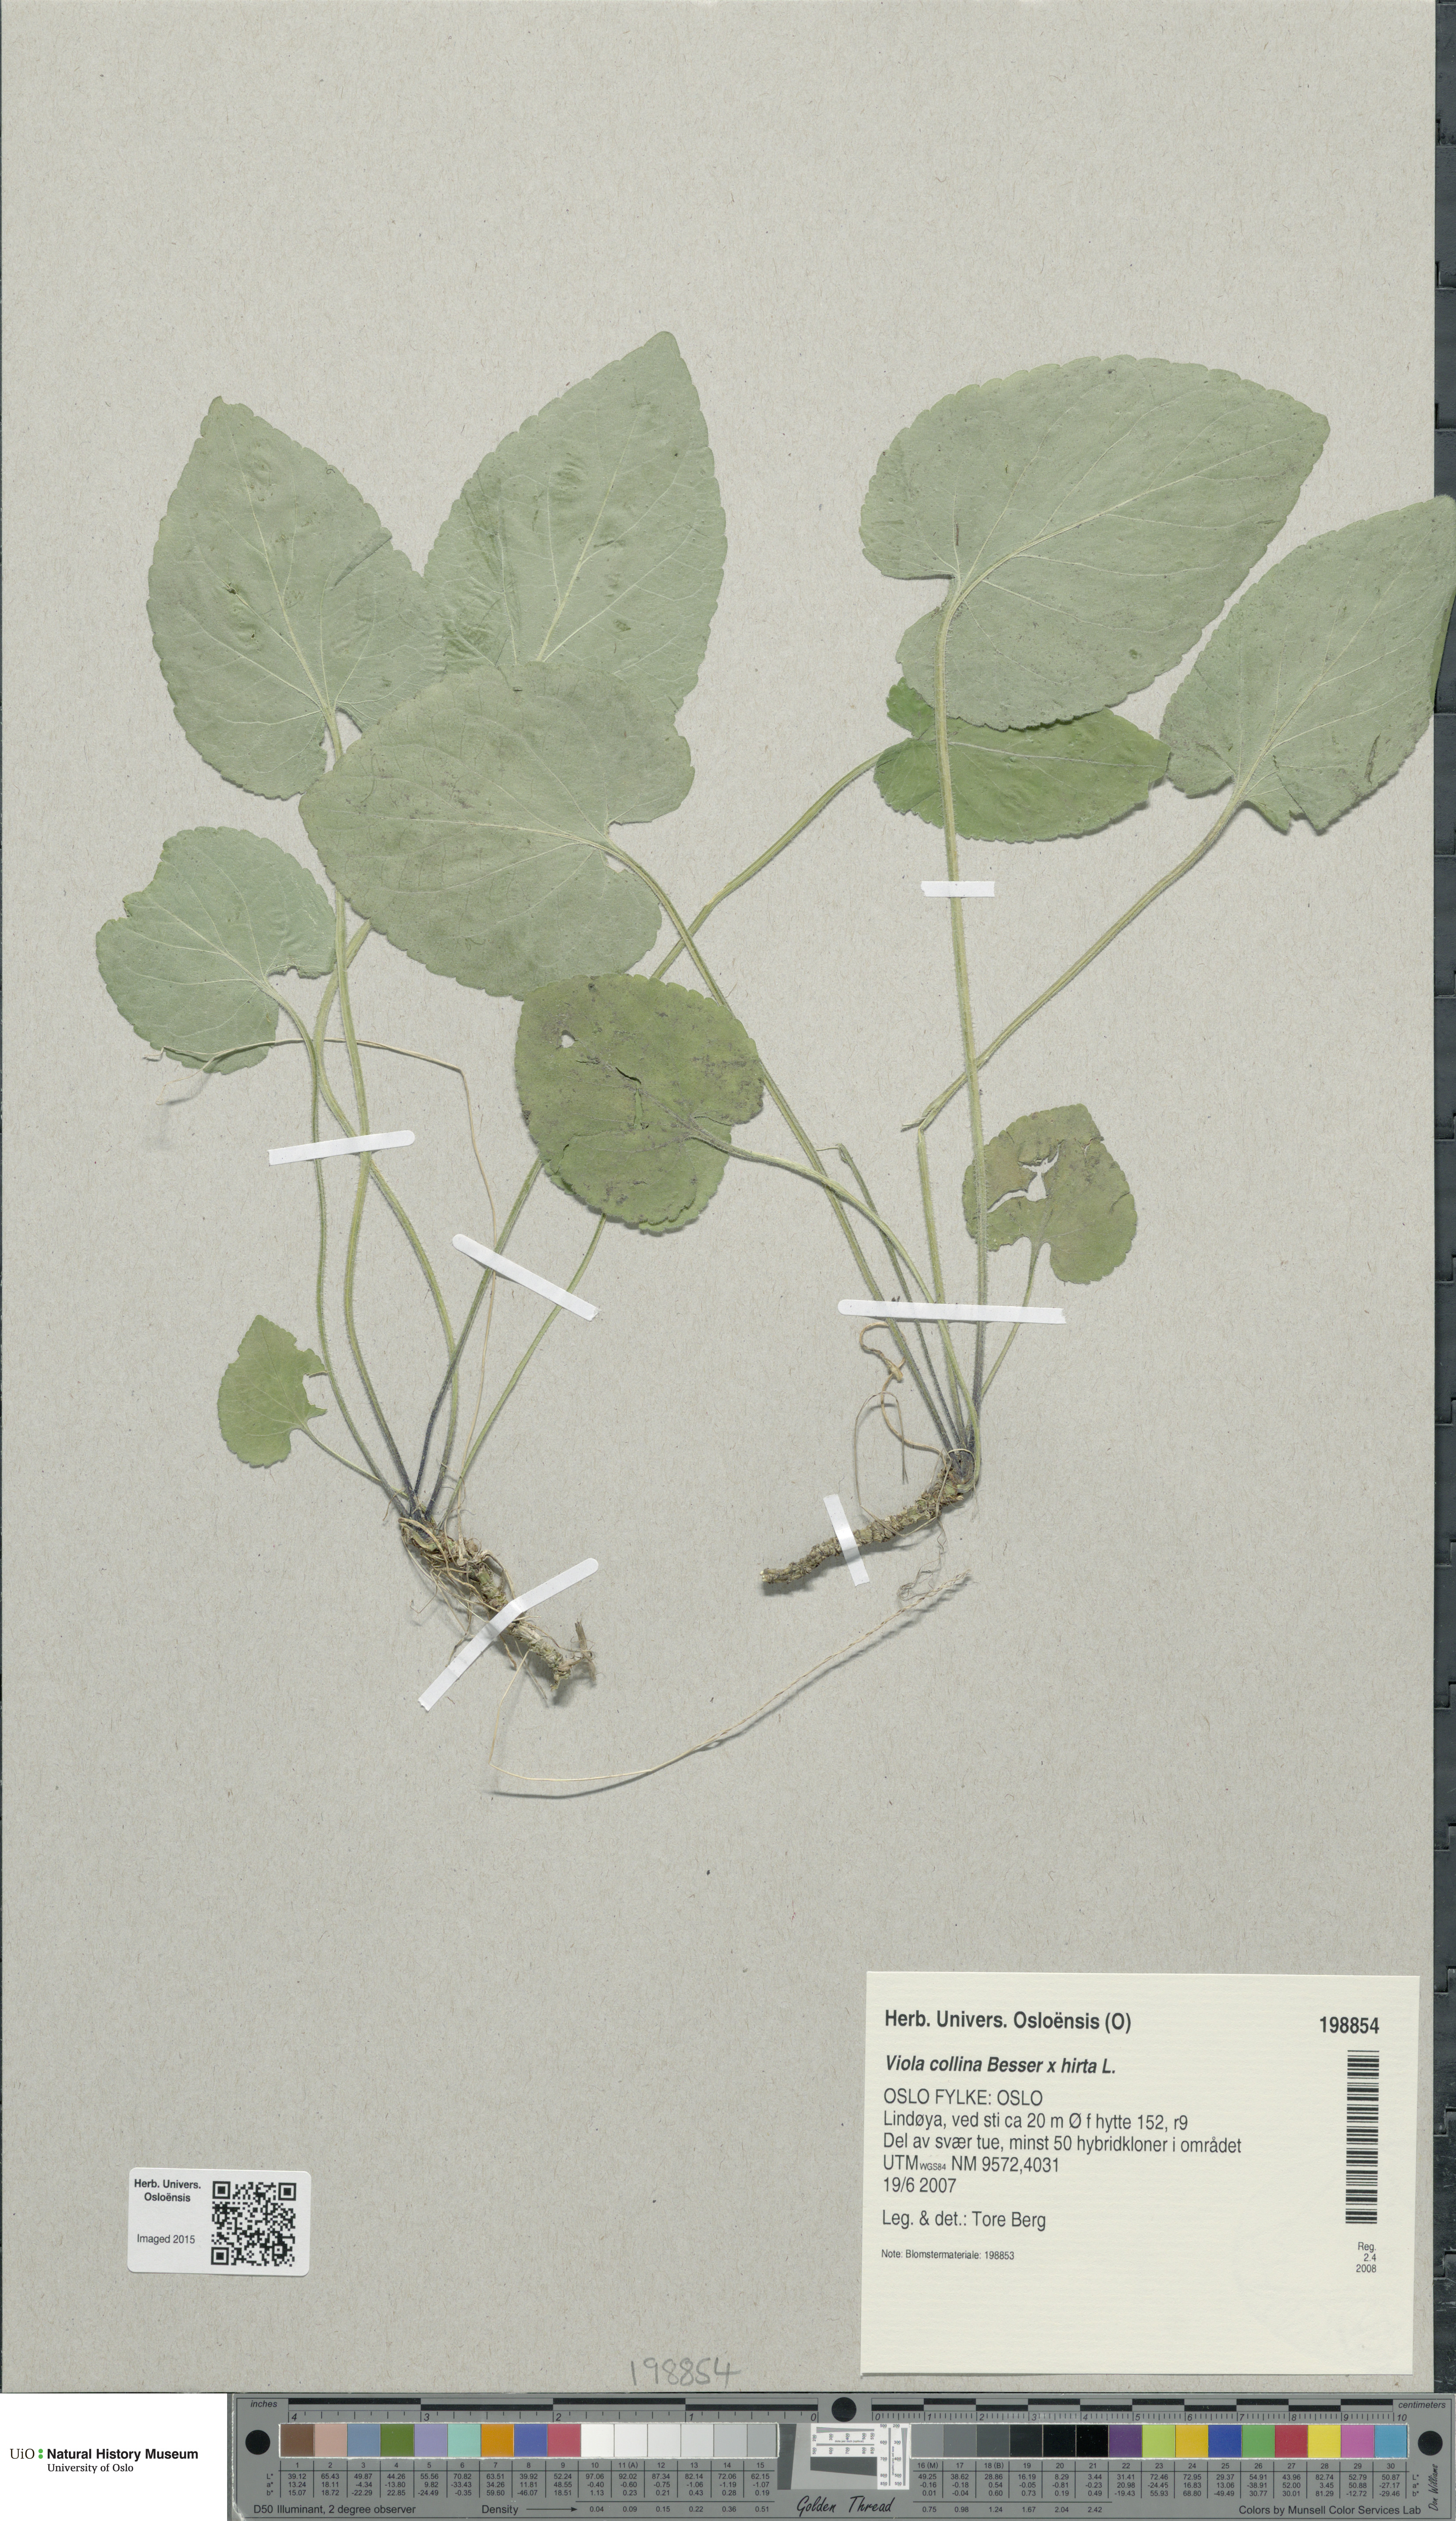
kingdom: Plantae
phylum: Tracheophyta
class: Magnoliopsida
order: Malpighiales
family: Violaceae
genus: Viola
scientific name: Viola
